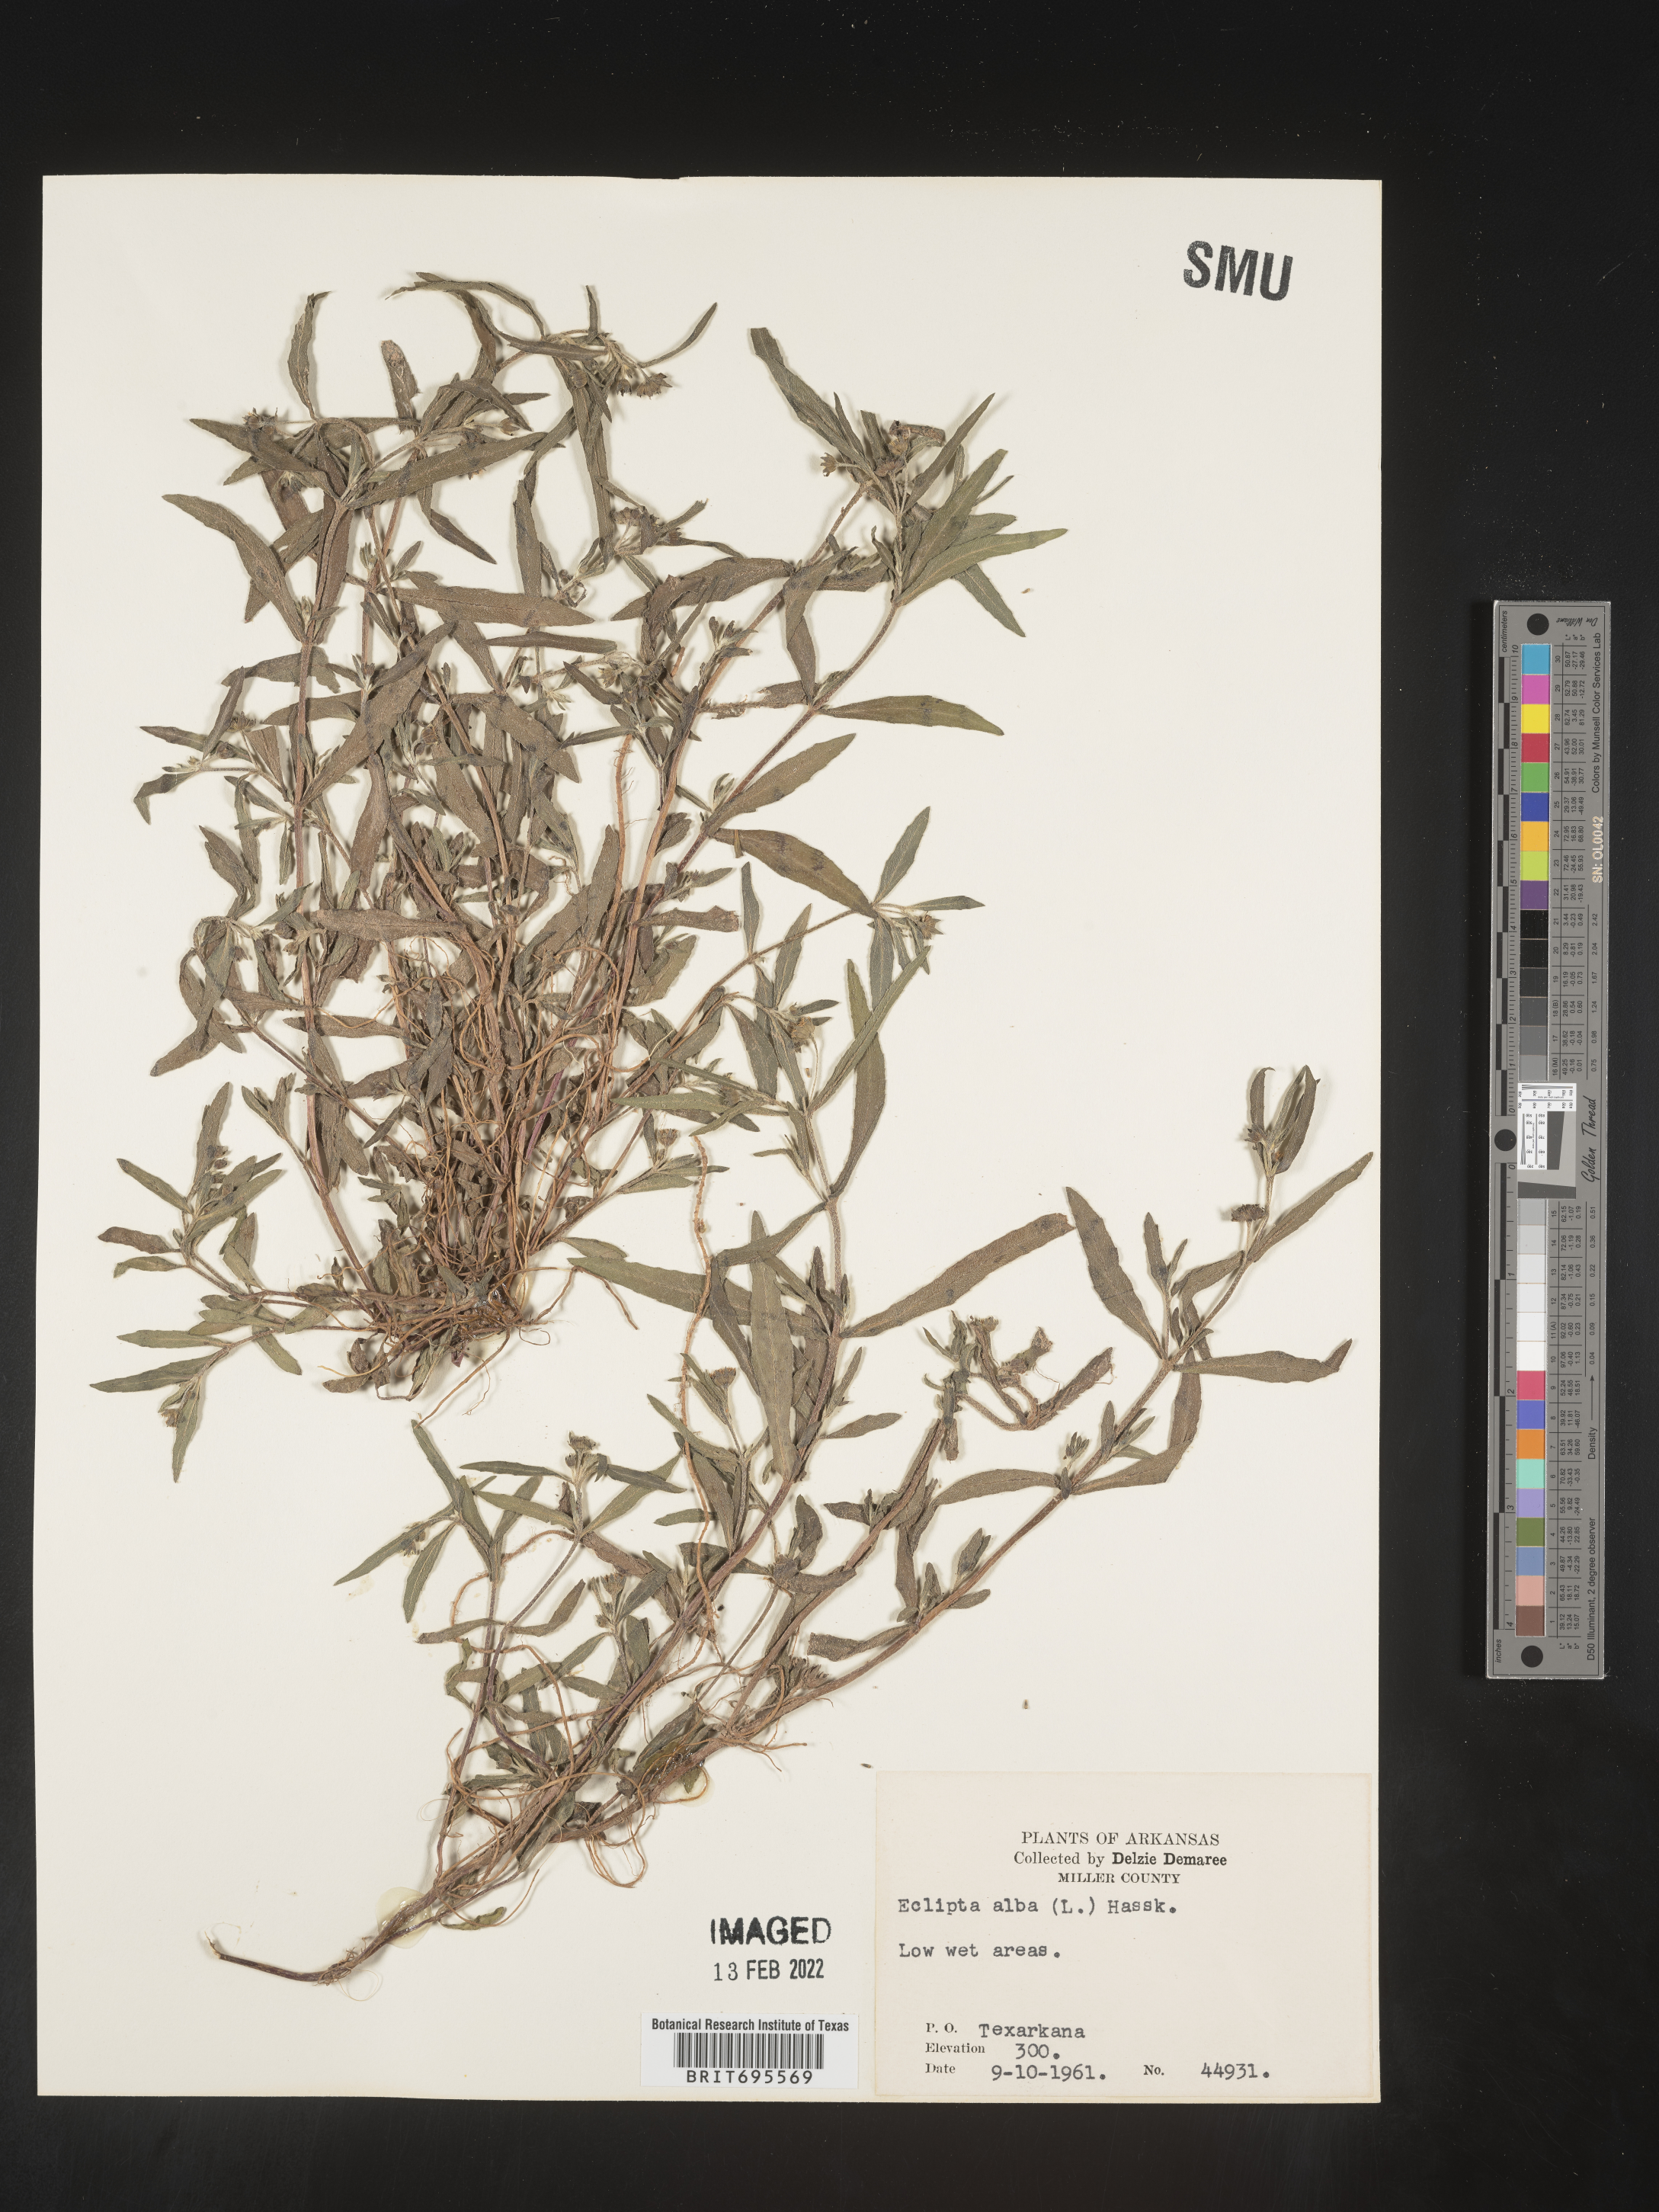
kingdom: Plantae
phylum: Tracheophyta
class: Magnoliopsida
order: Asterales
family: Asteraceae
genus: Eclipta
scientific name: Eclipta alba
